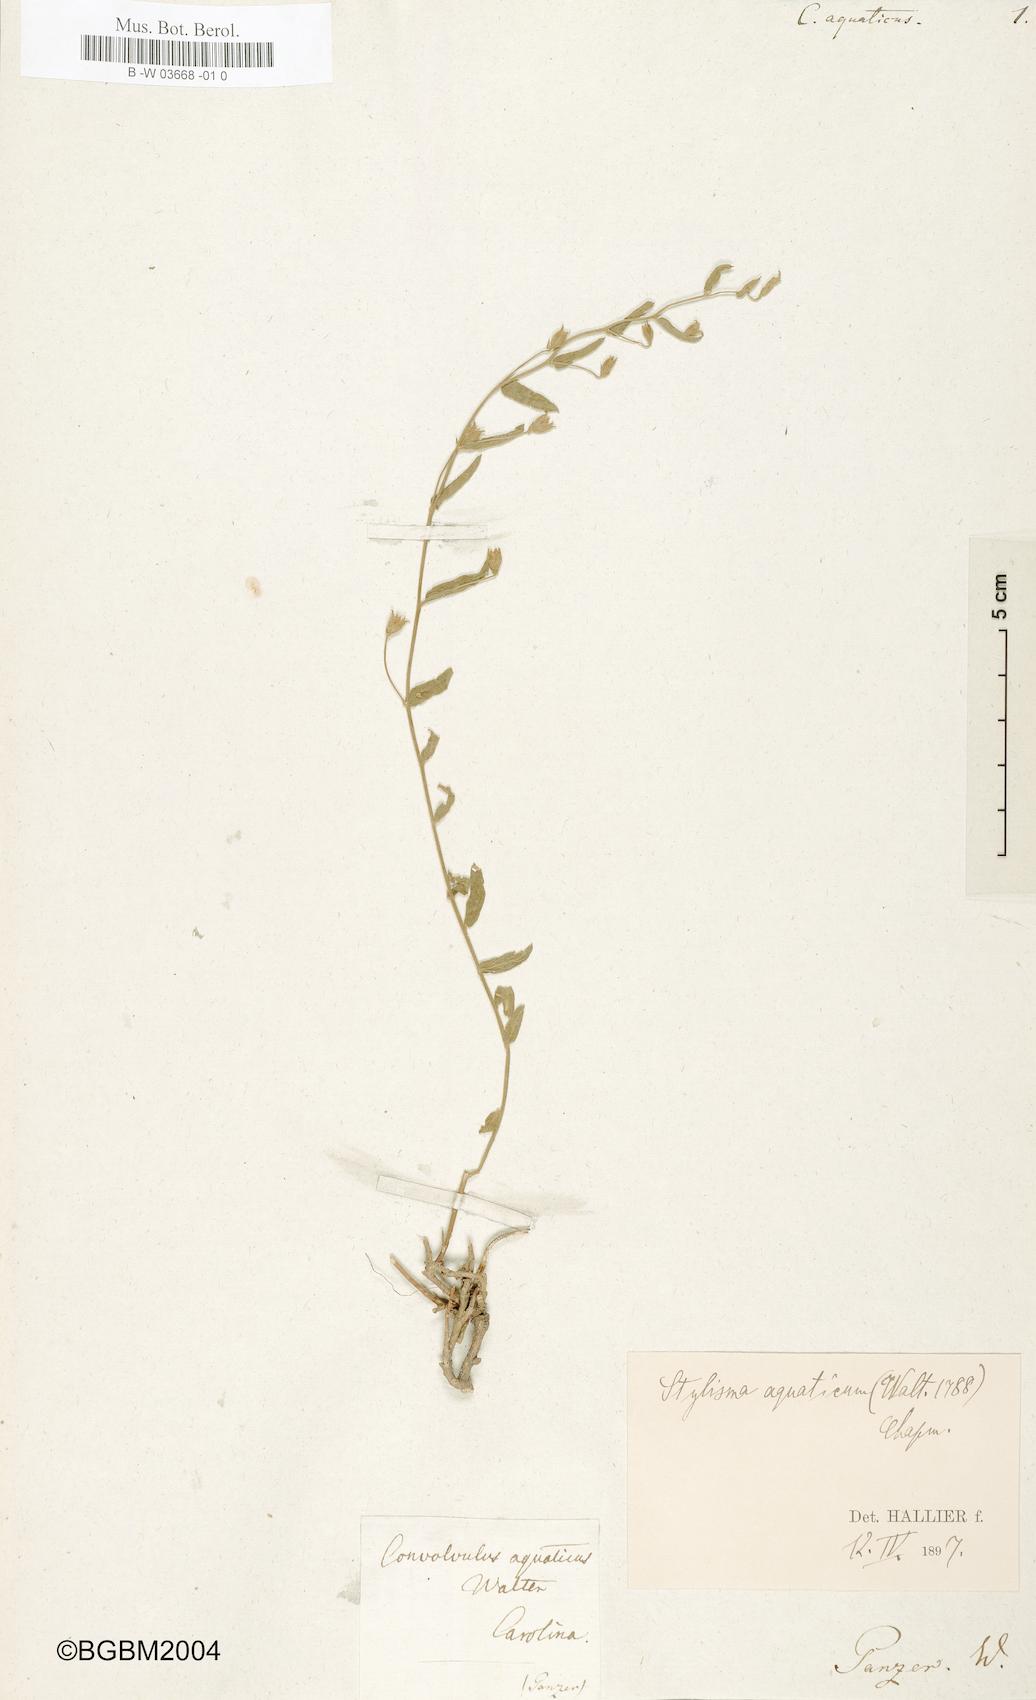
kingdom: Plantae
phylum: Tracheophyta
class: Magnoliopsida
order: Solanales
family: Convolvulaceae
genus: Stylisma
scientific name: Stylisma aquatica
